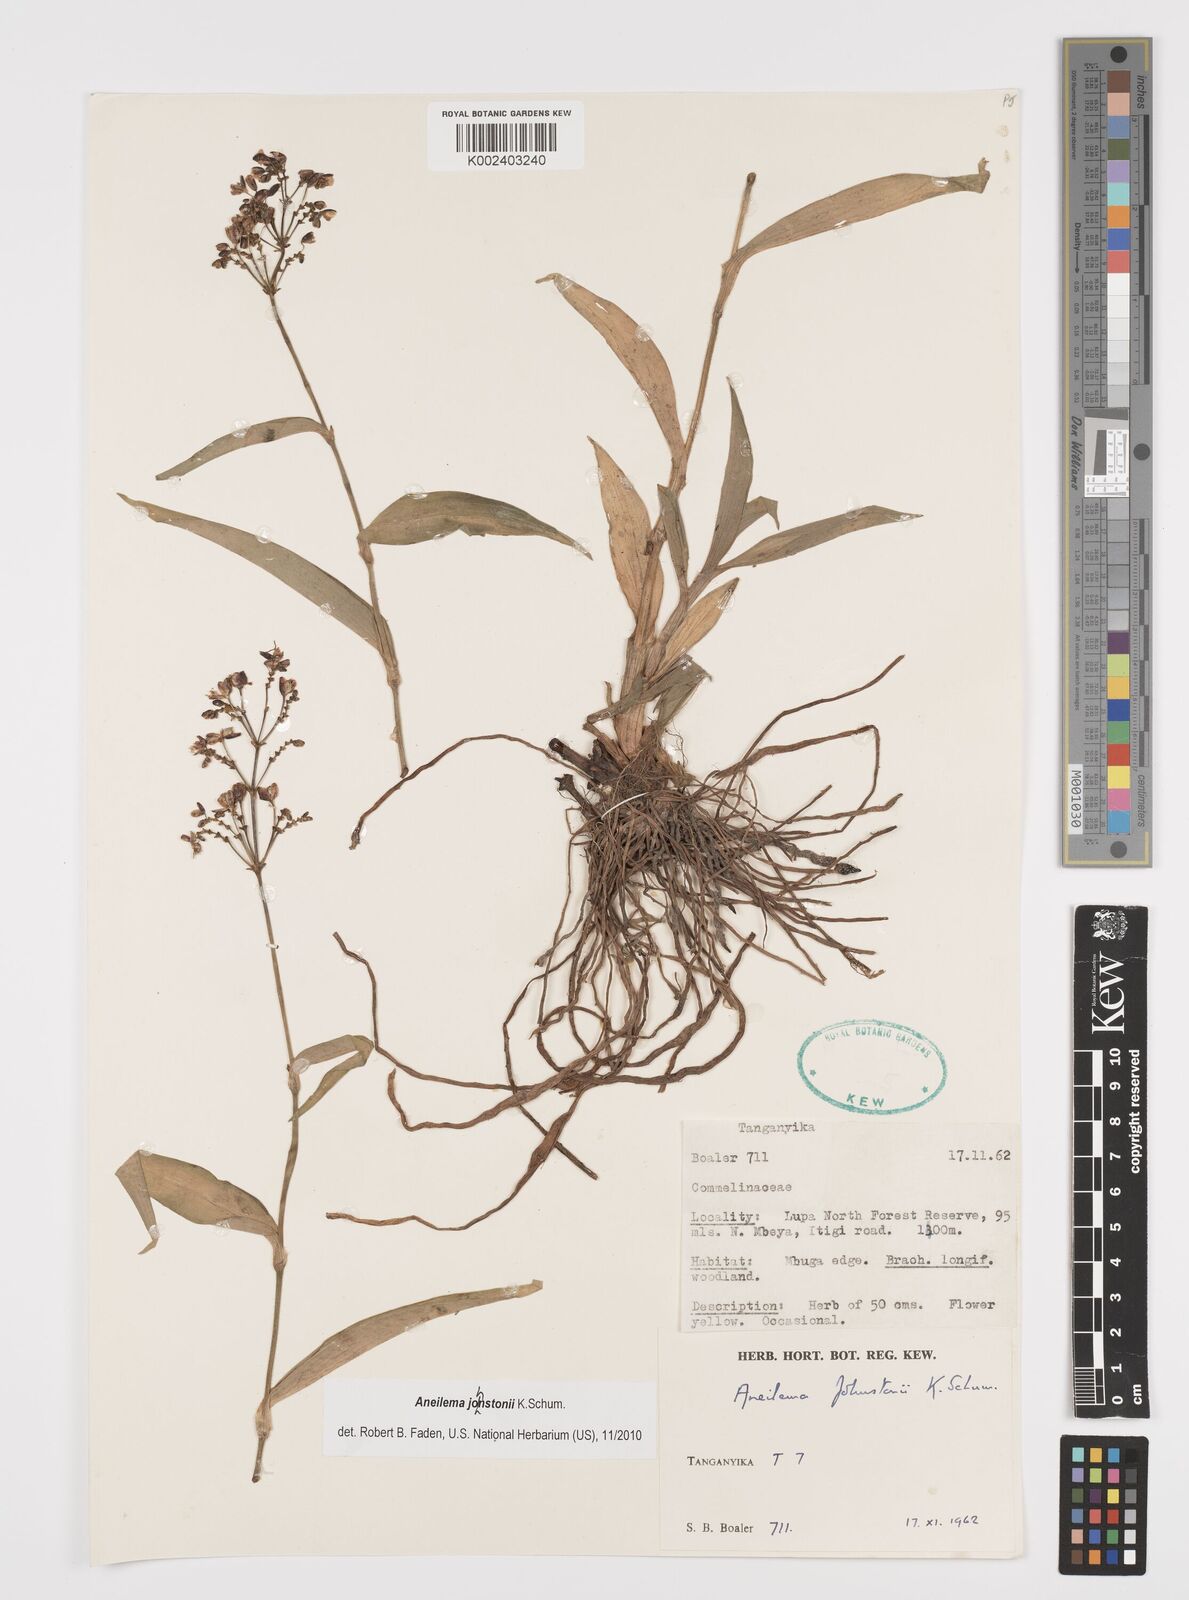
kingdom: Plantae
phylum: Tracheophyta
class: Liliopsida
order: Commelinales
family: Commelinaceae
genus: Aneilema
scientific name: Aneilema johnstonii
